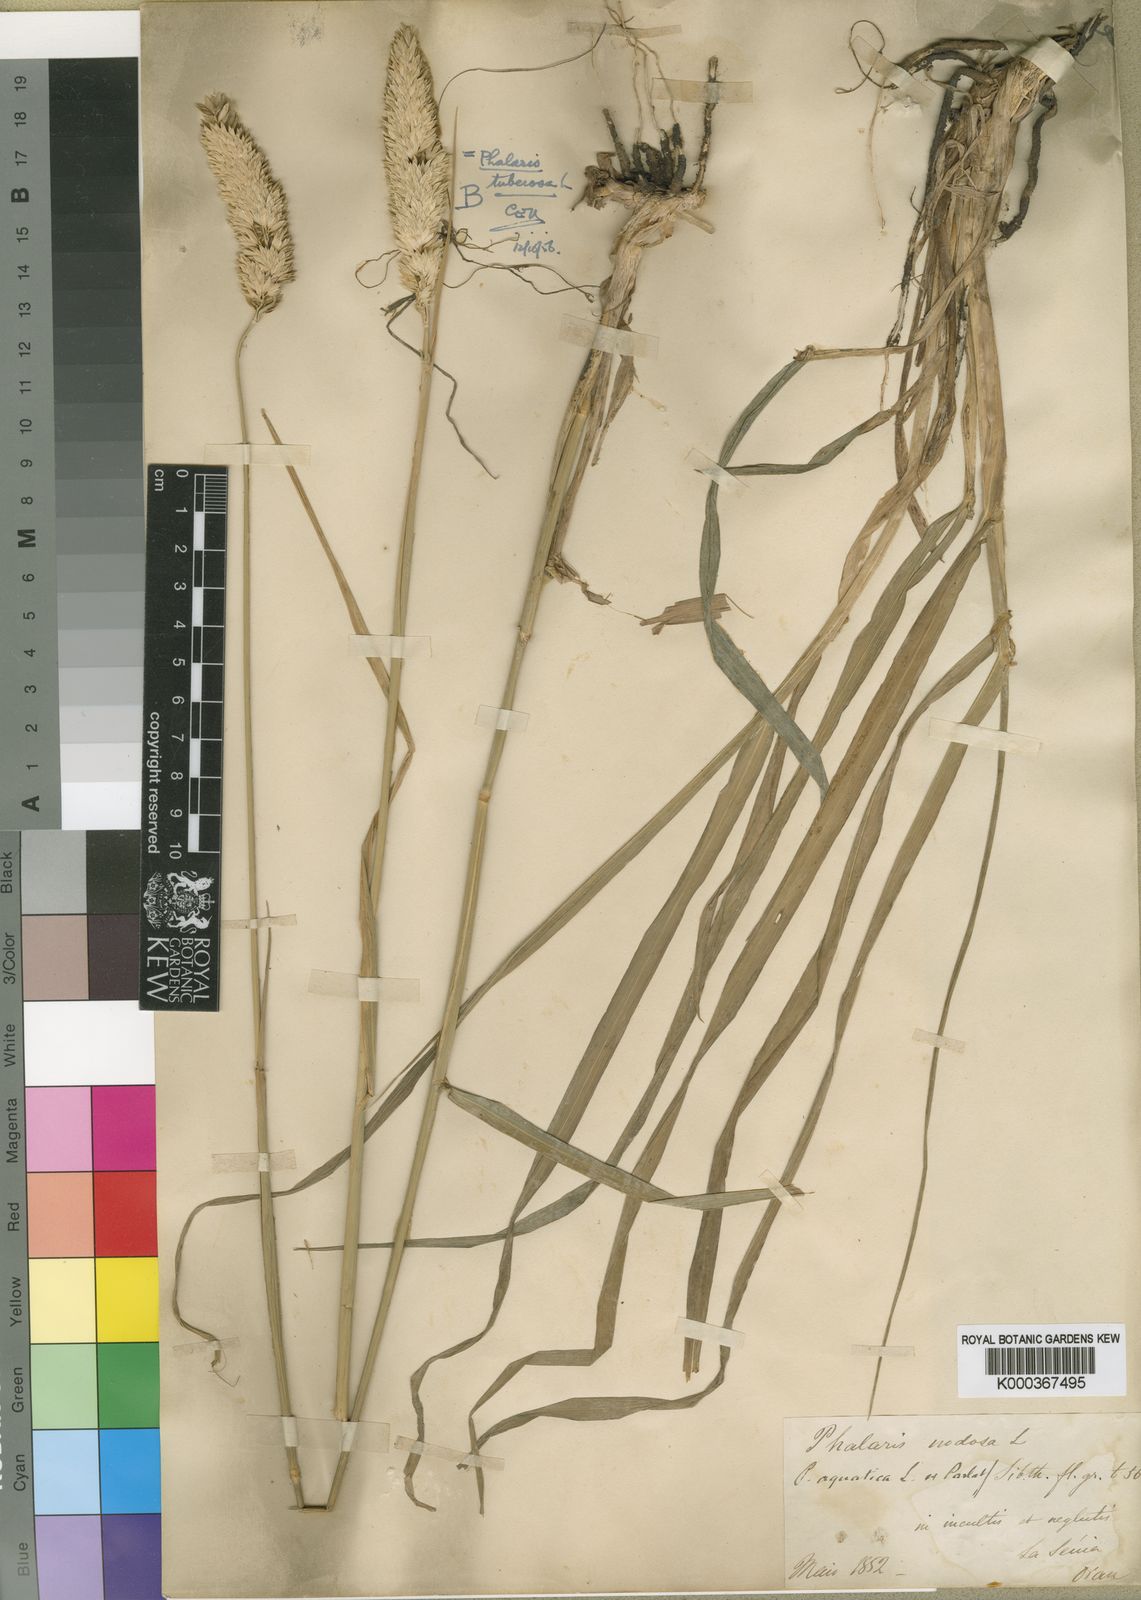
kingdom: Plantae
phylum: Tracheophyta
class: Liliopsida
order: Poales
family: Poaceae
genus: Phalaris
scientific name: Phalaris aquatica
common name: Bulbous canary-grass
